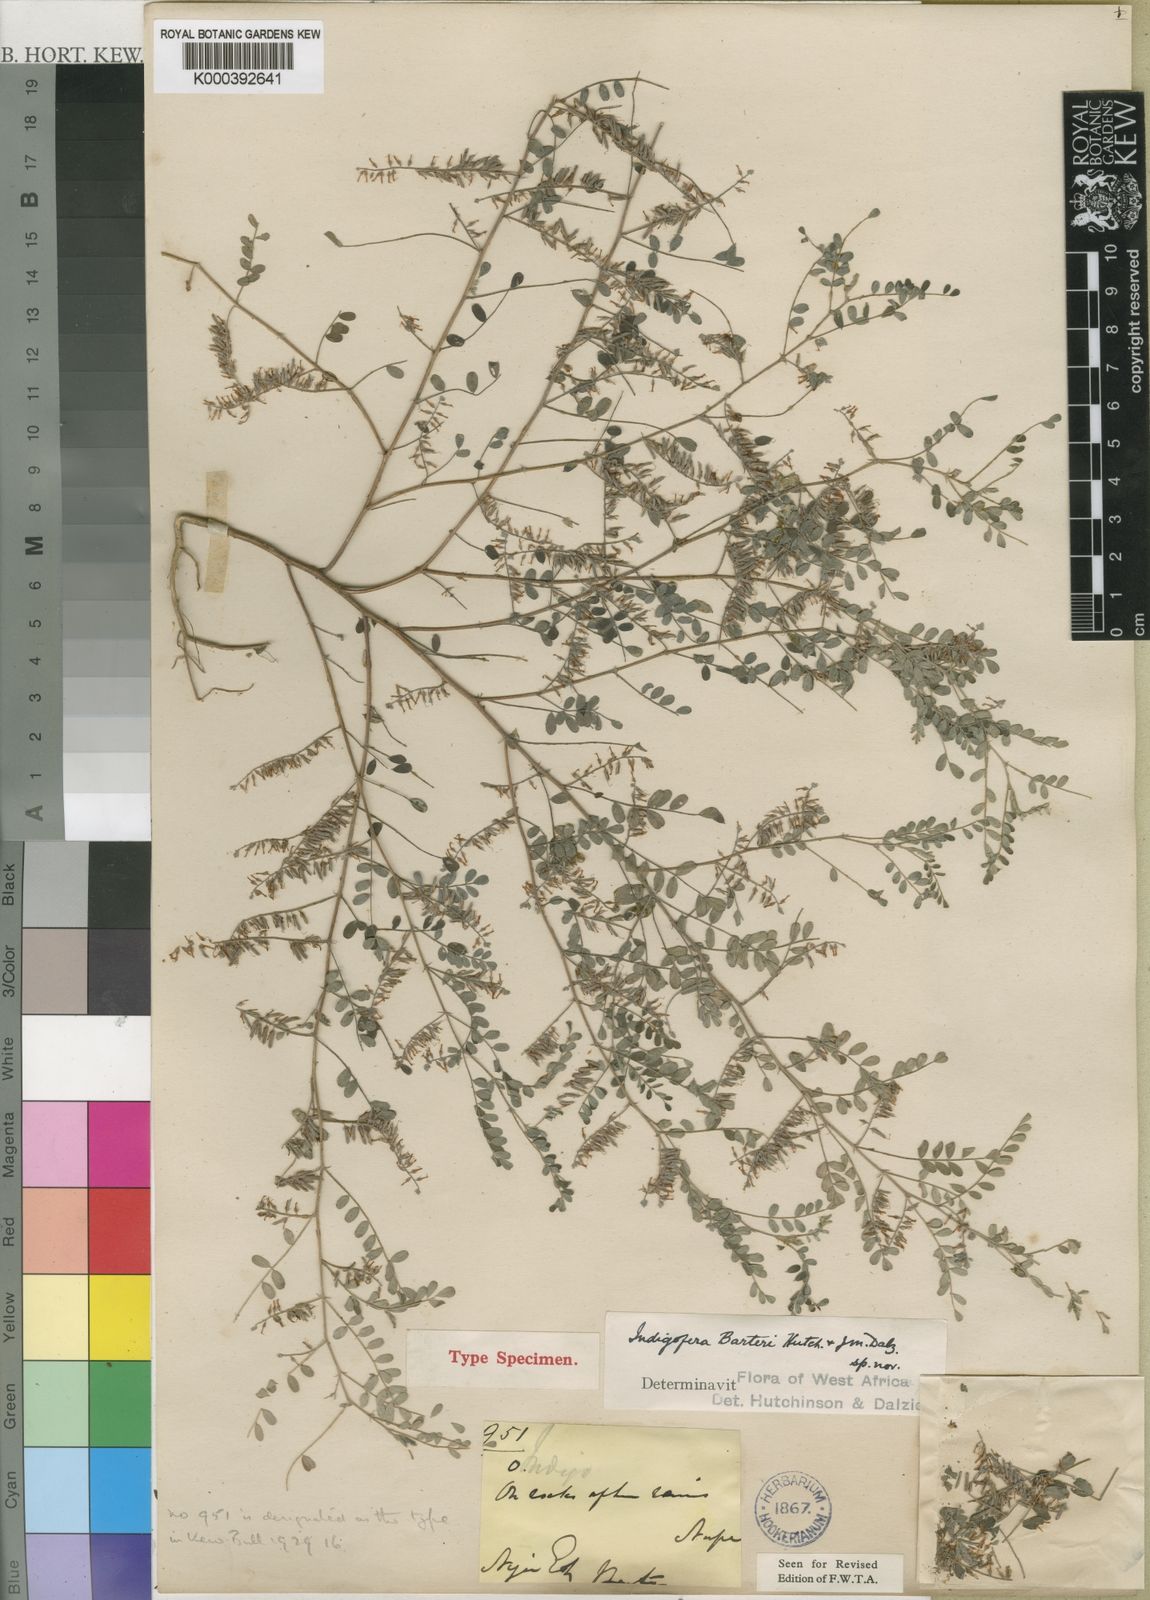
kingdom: Plantae
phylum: Tracheophyta
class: Magnoliopsida
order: Fabales
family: Fabaceae
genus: Indigofera
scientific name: Indigofera barteri
